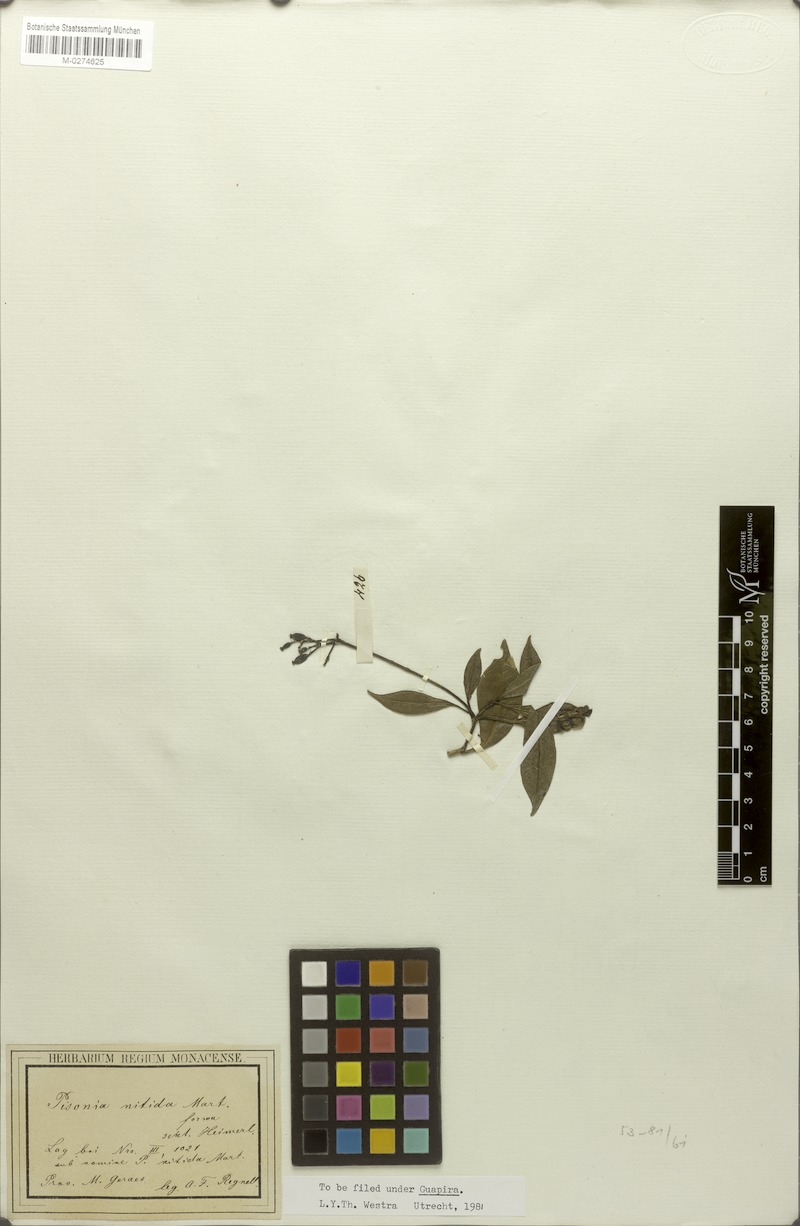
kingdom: Plantae
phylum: Tracheophyta
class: Magnoliopsida
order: Caryophyllales
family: Nyctaginaceae
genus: Guapira
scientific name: Guapira opposita
